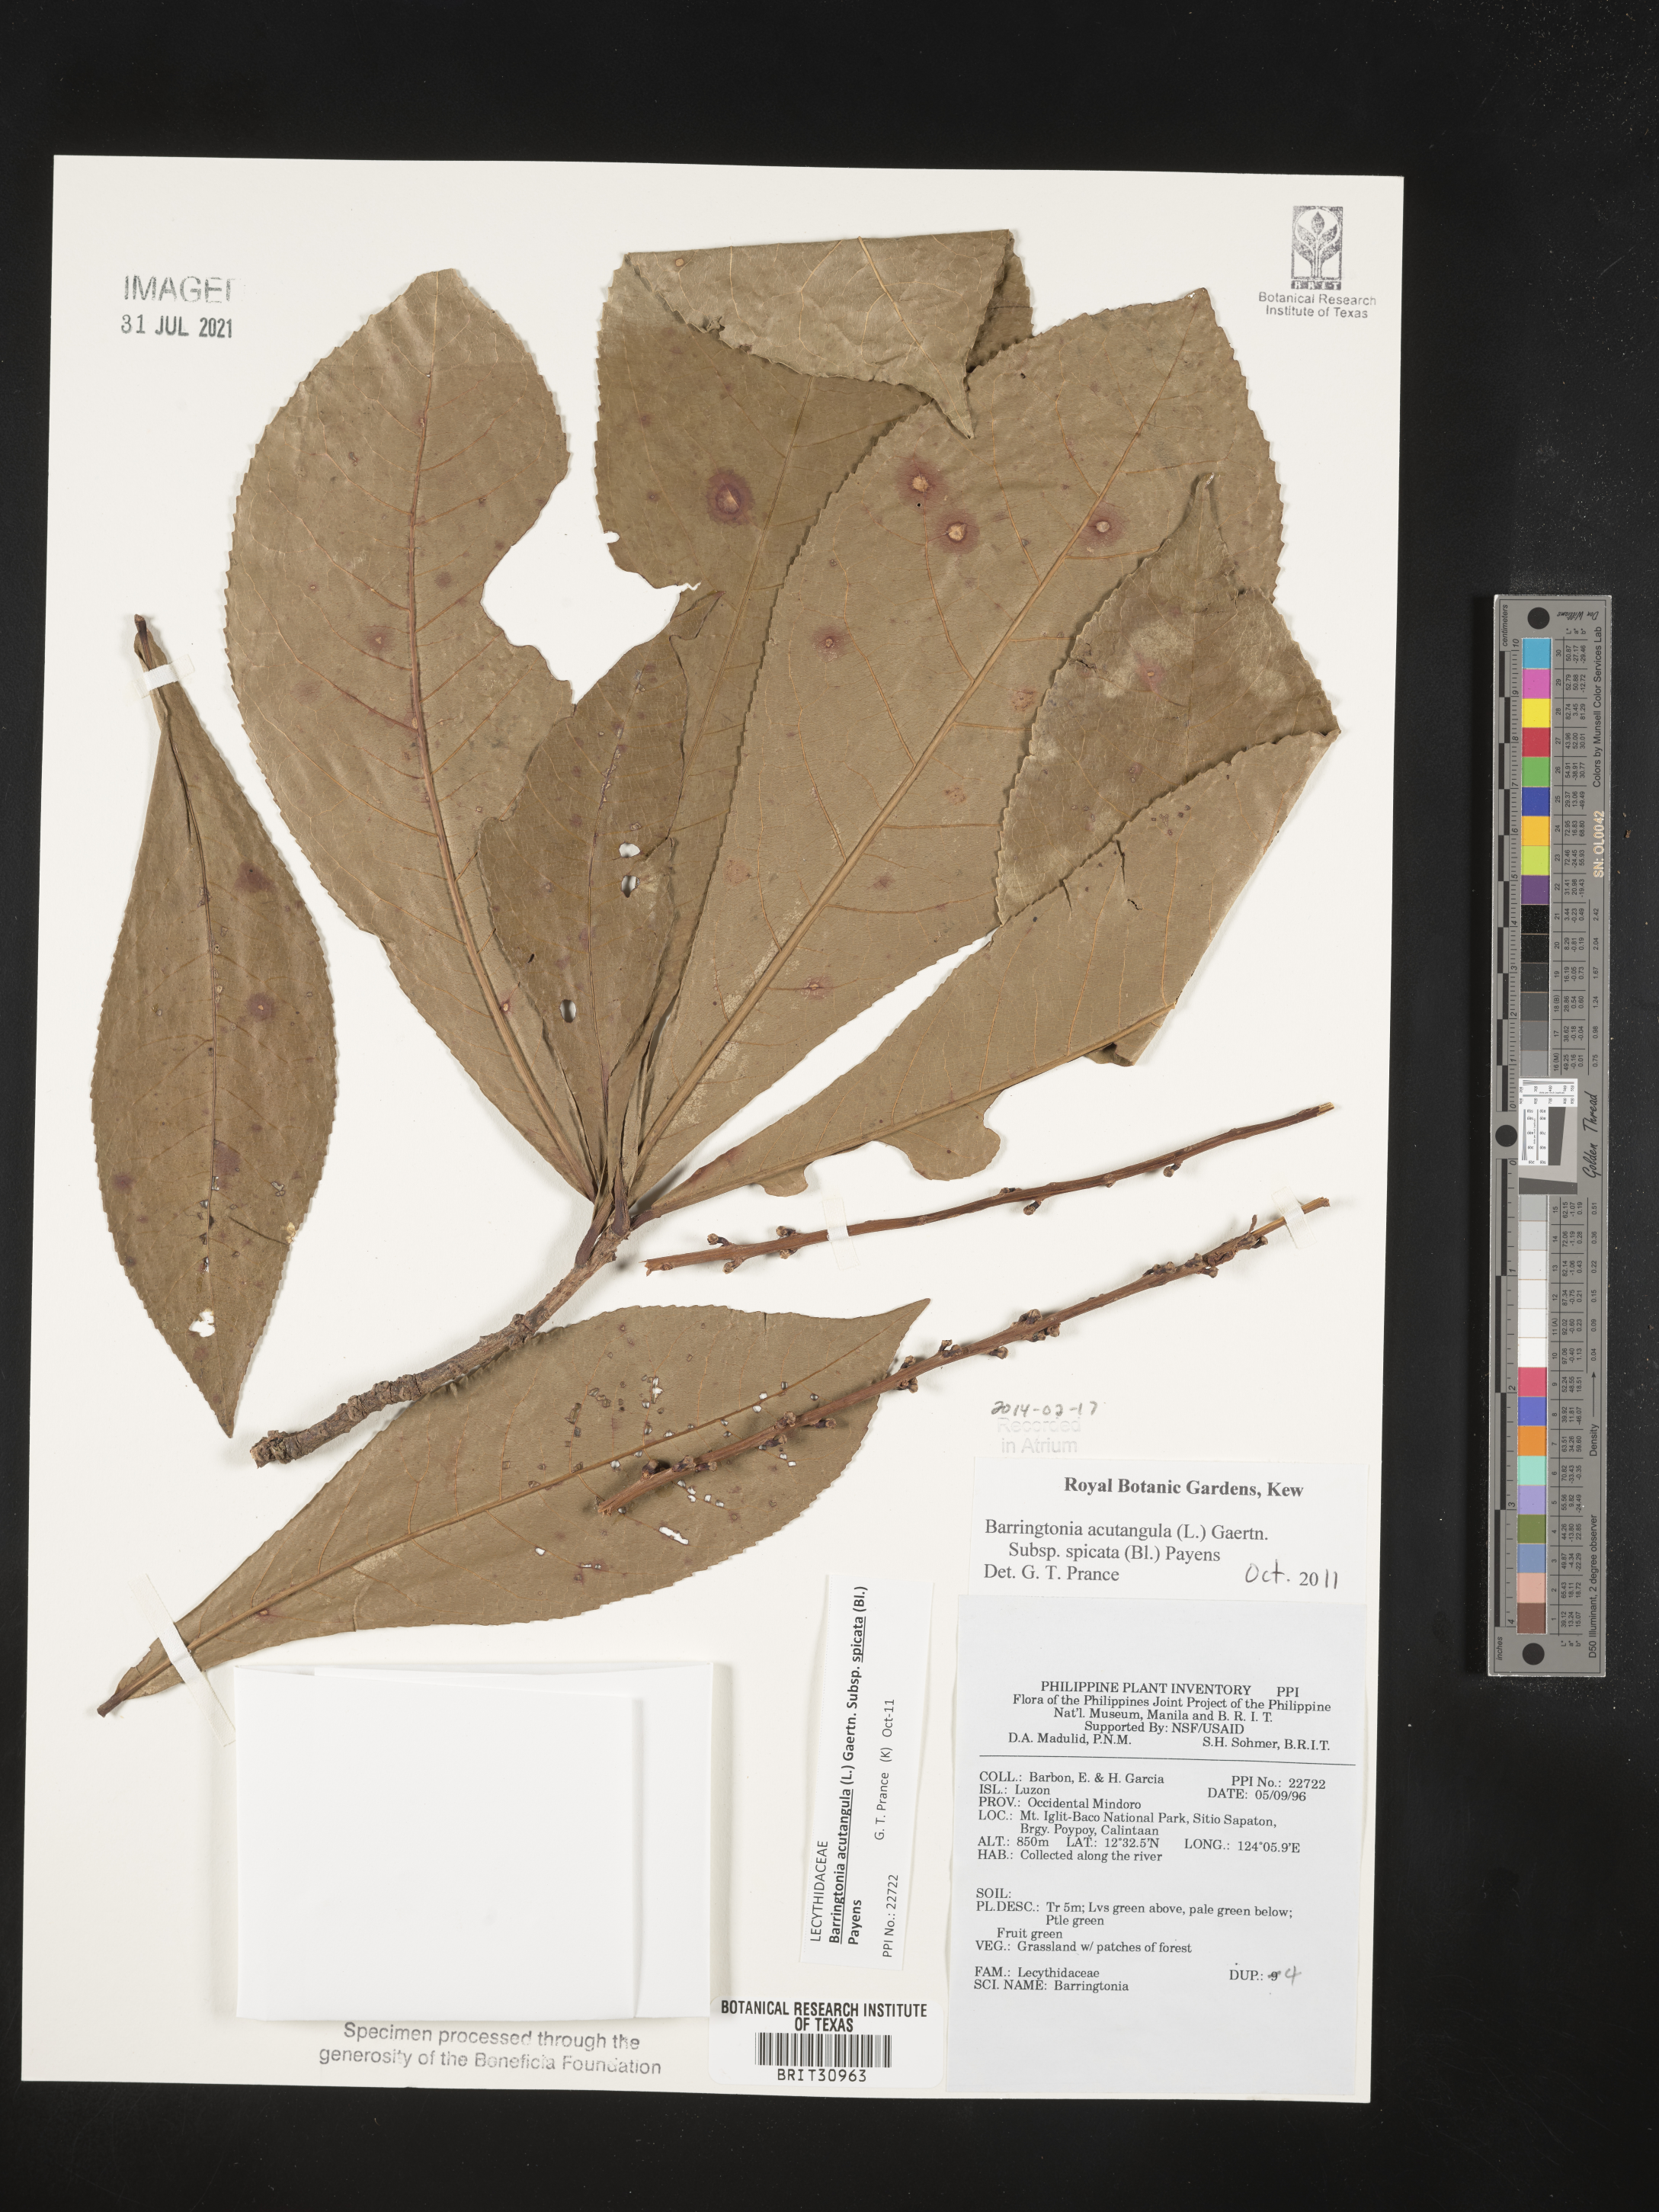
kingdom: Plantae
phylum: Tracheophyta
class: Magnoliopsida
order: Ericales
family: Lecythidaceae
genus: Barringtonia
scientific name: Barringtonia
